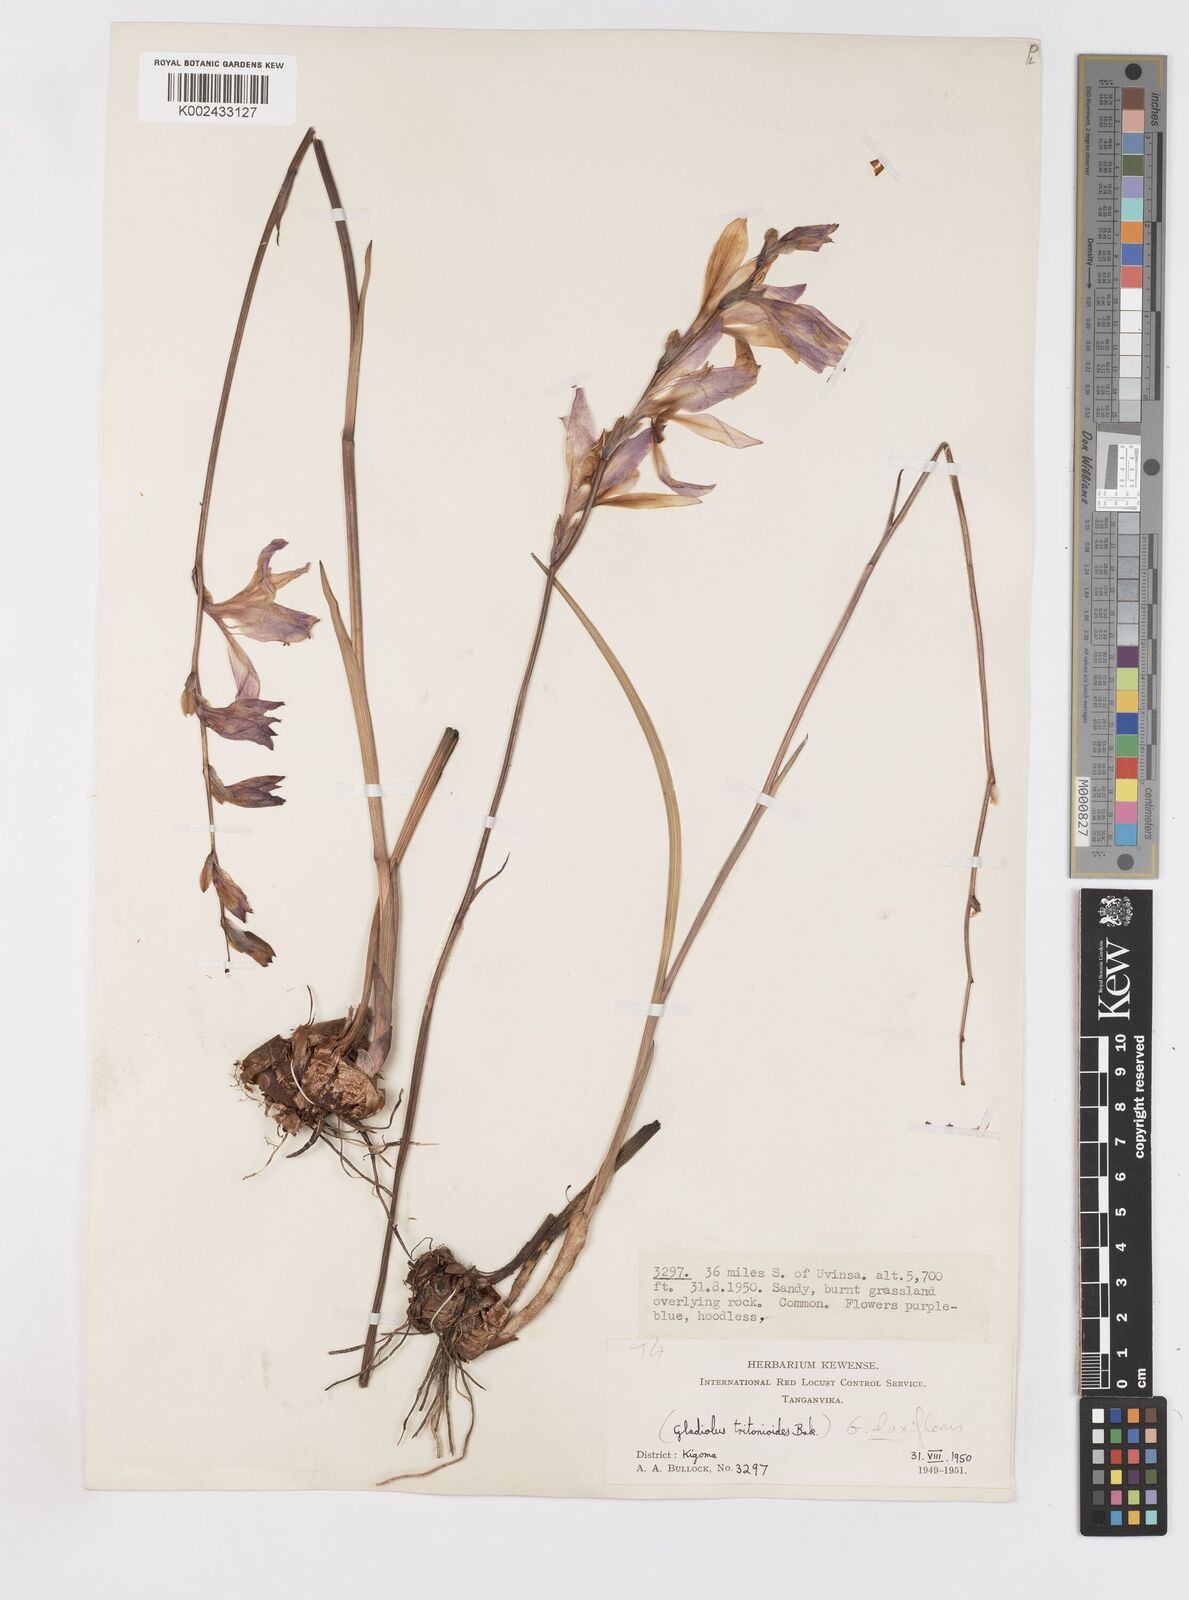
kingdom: Plantae
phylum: Tracheophyta
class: Liliopsida
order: Asparagales
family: Iridaceae
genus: Gladiolus
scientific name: Gladiolus laxiflorus
